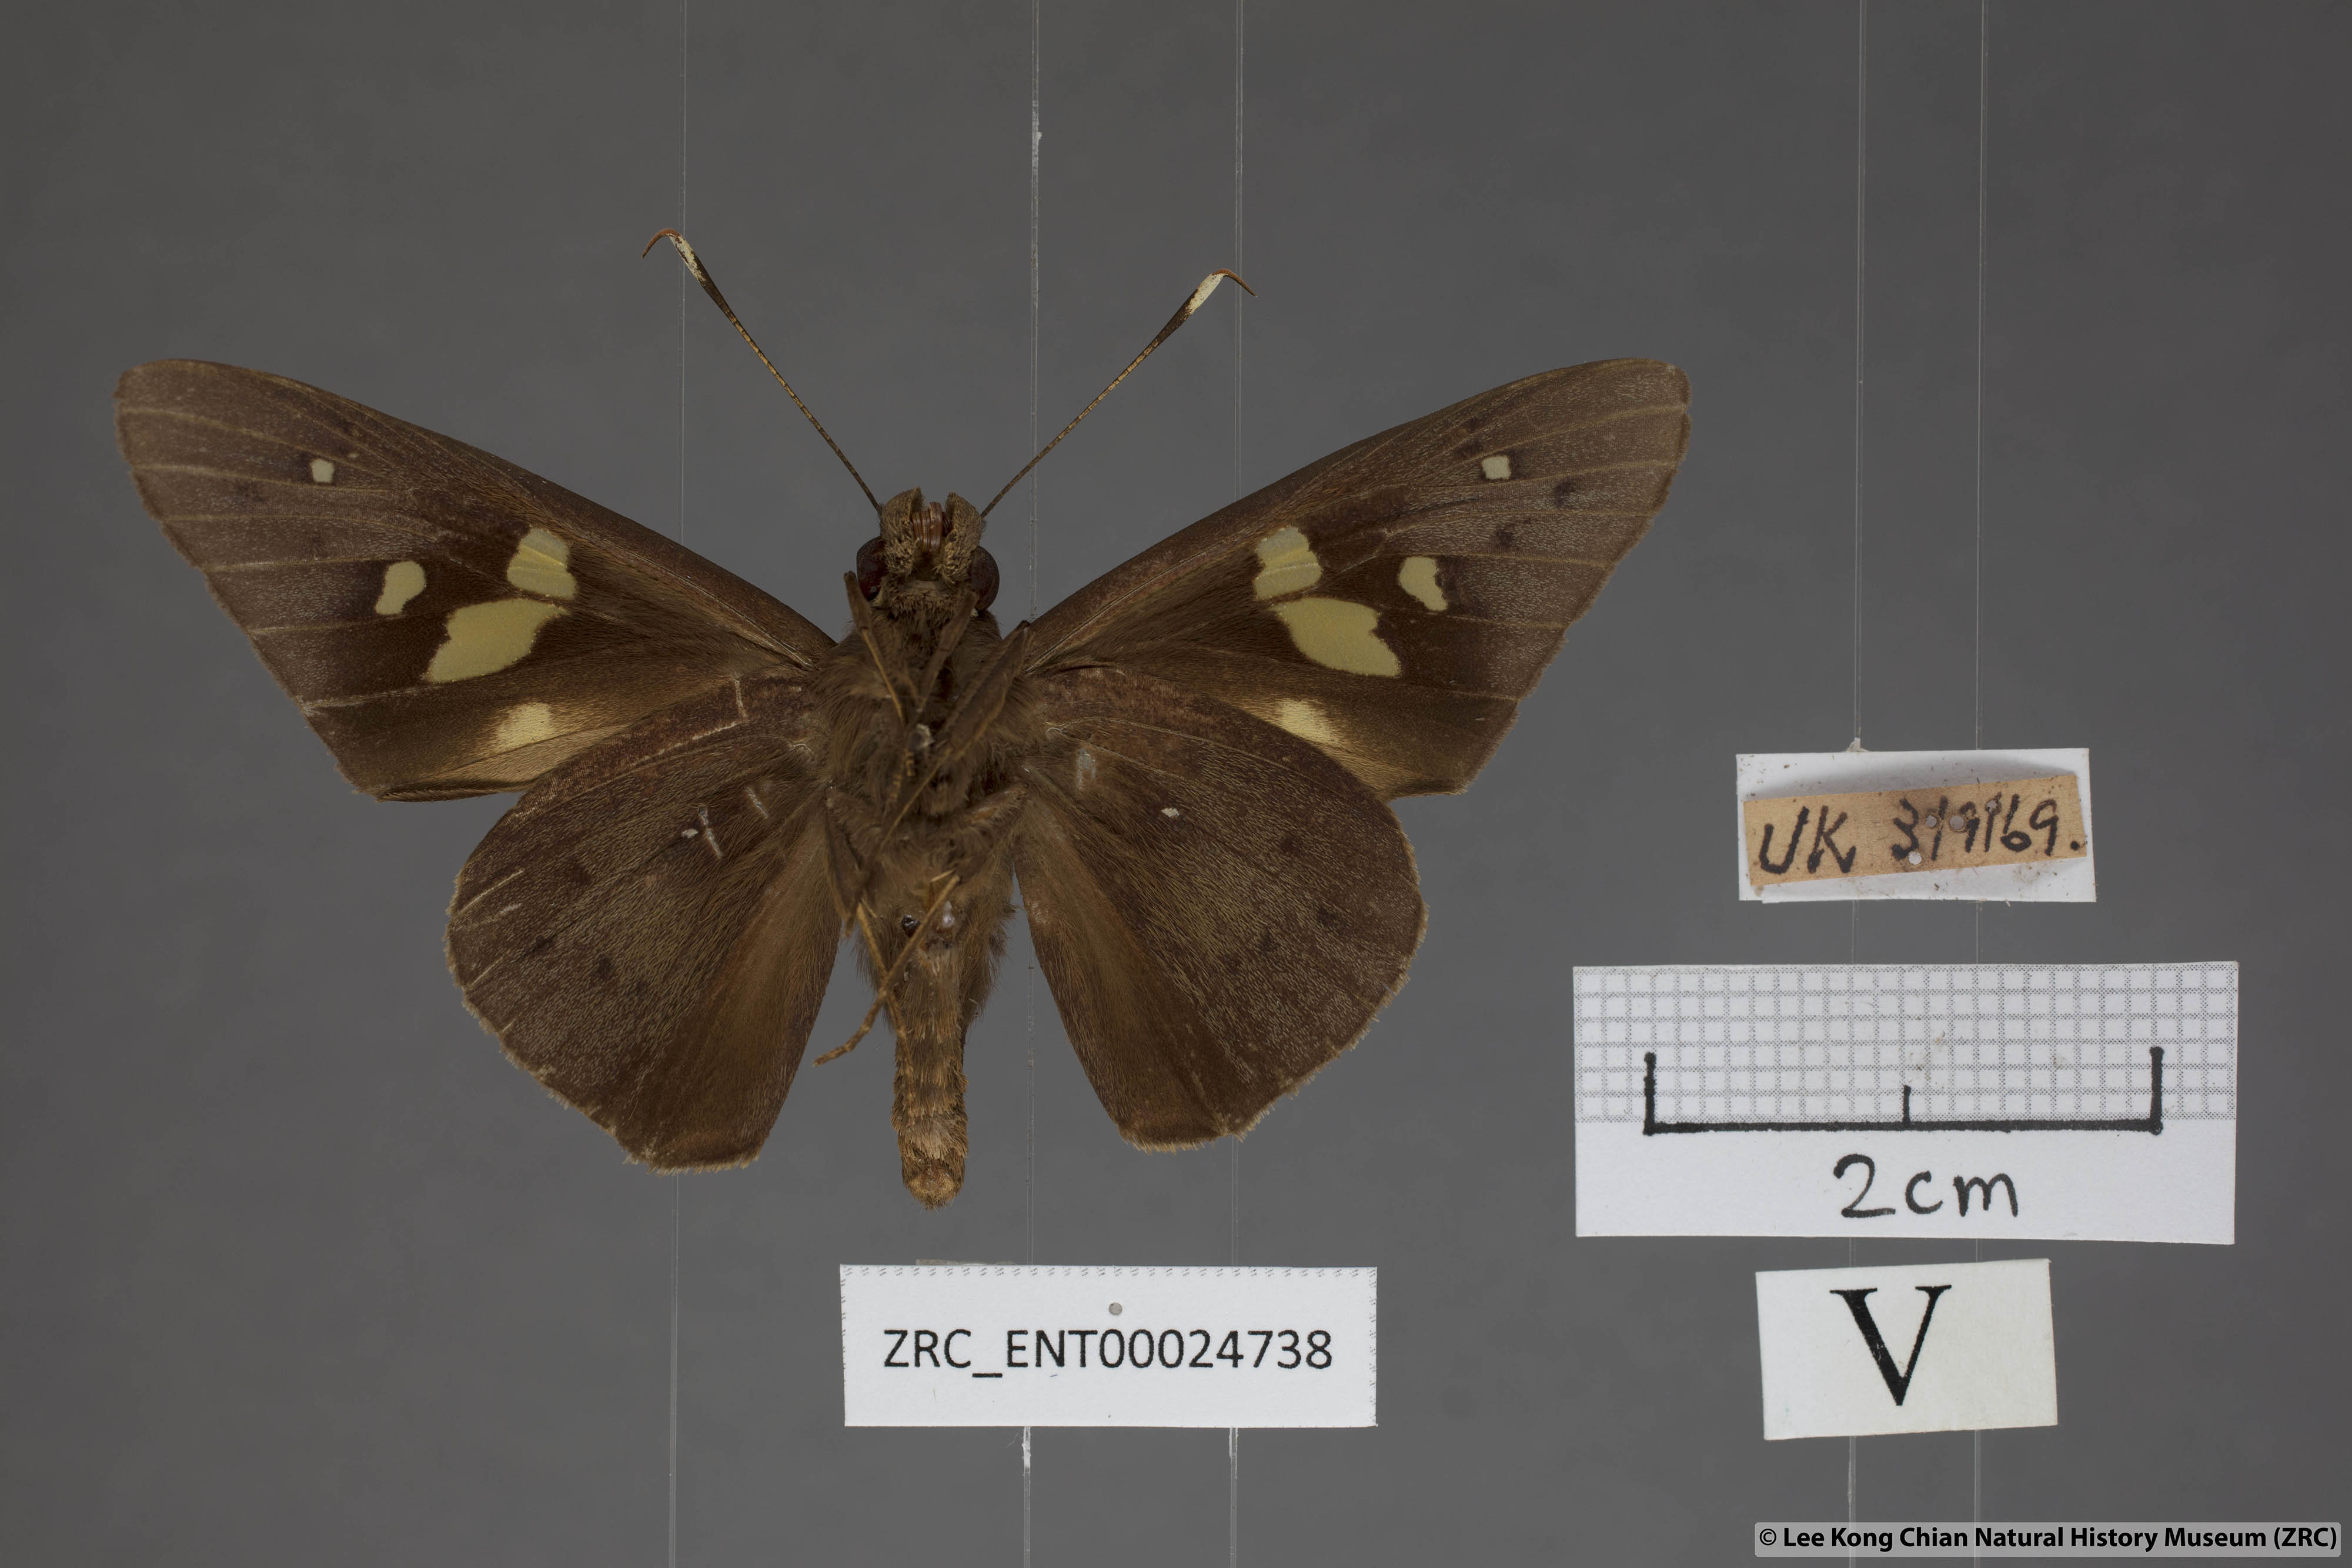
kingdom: Animalia
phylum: Arthropoda
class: Insecta
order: Lepidoptera
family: Hesperiidae
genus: Hidari
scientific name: Hidari doesoena
